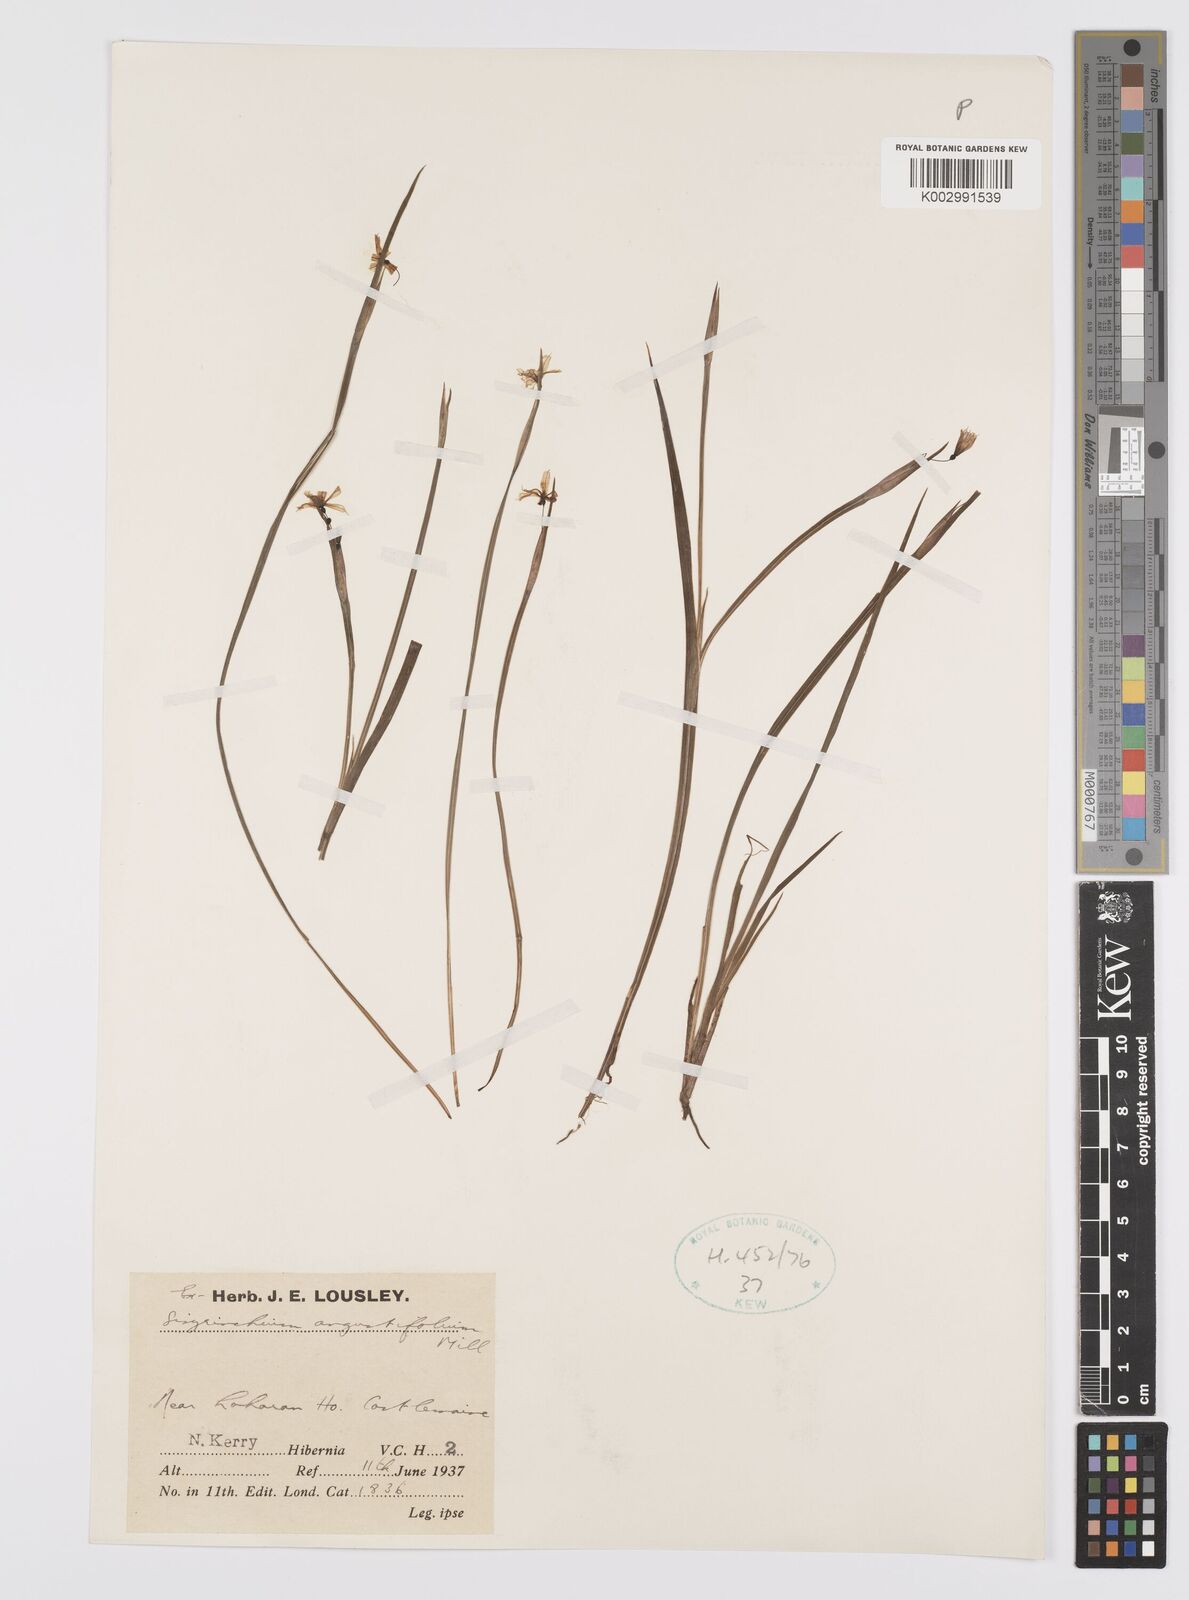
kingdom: Plantae
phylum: Tracheophyta
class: Liliopsida
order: Asparagales
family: Iridaceae
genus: Sisyrinchium
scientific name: Sisyrinchium angustifolium
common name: Narrow-leaf blue-eyed-grass
